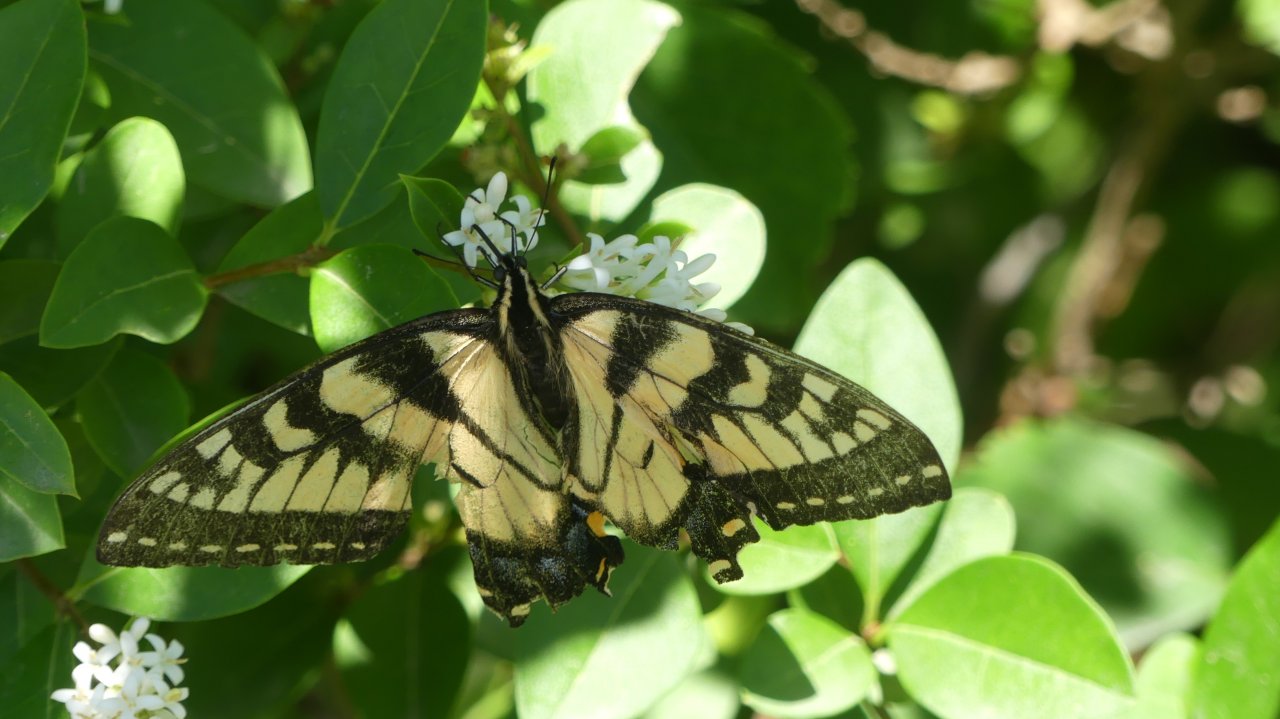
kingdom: Animalia
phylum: Arthropoda
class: Insecta
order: Lepidoptera
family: Papilionidae
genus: Pterourus
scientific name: Pterourus glaucus
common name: Eastern Tiger Swallowtail
